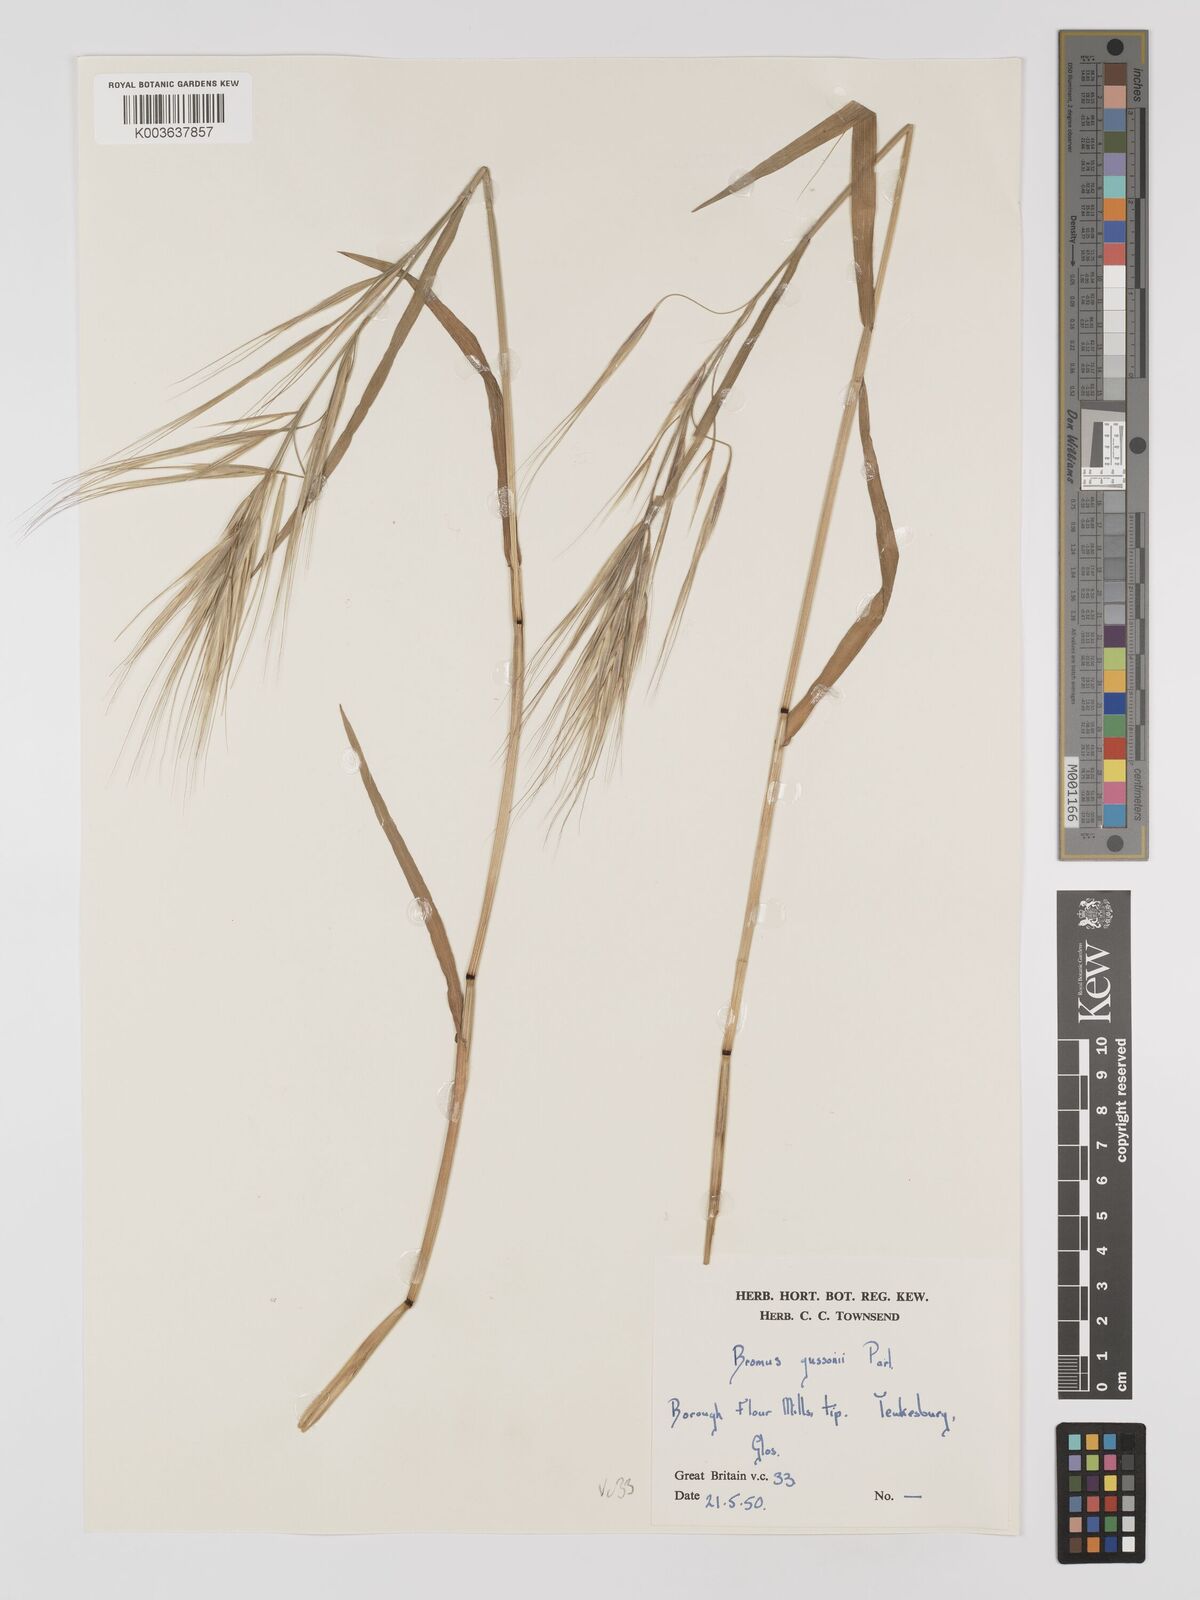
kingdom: Plantae
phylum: Tracheophyta
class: Liliopsida
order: Poales
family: Poaceae
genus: Bromus
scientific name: Bromus
